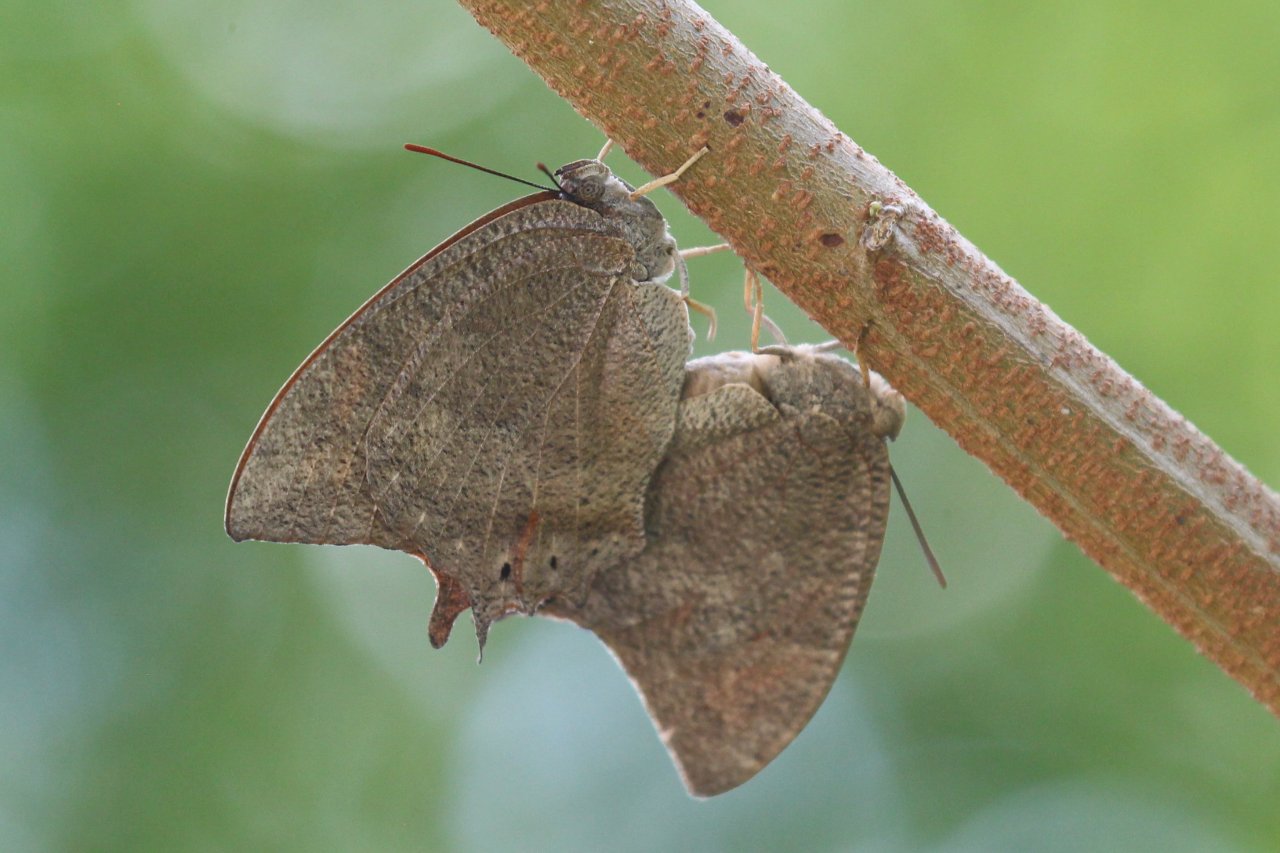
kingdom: Animalia
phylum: Arthropoda
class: Insecta
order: Lepidoptera
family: Nymphalidae
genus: Anaea
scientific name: Anaea aidea
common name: Tropical Leafwing
